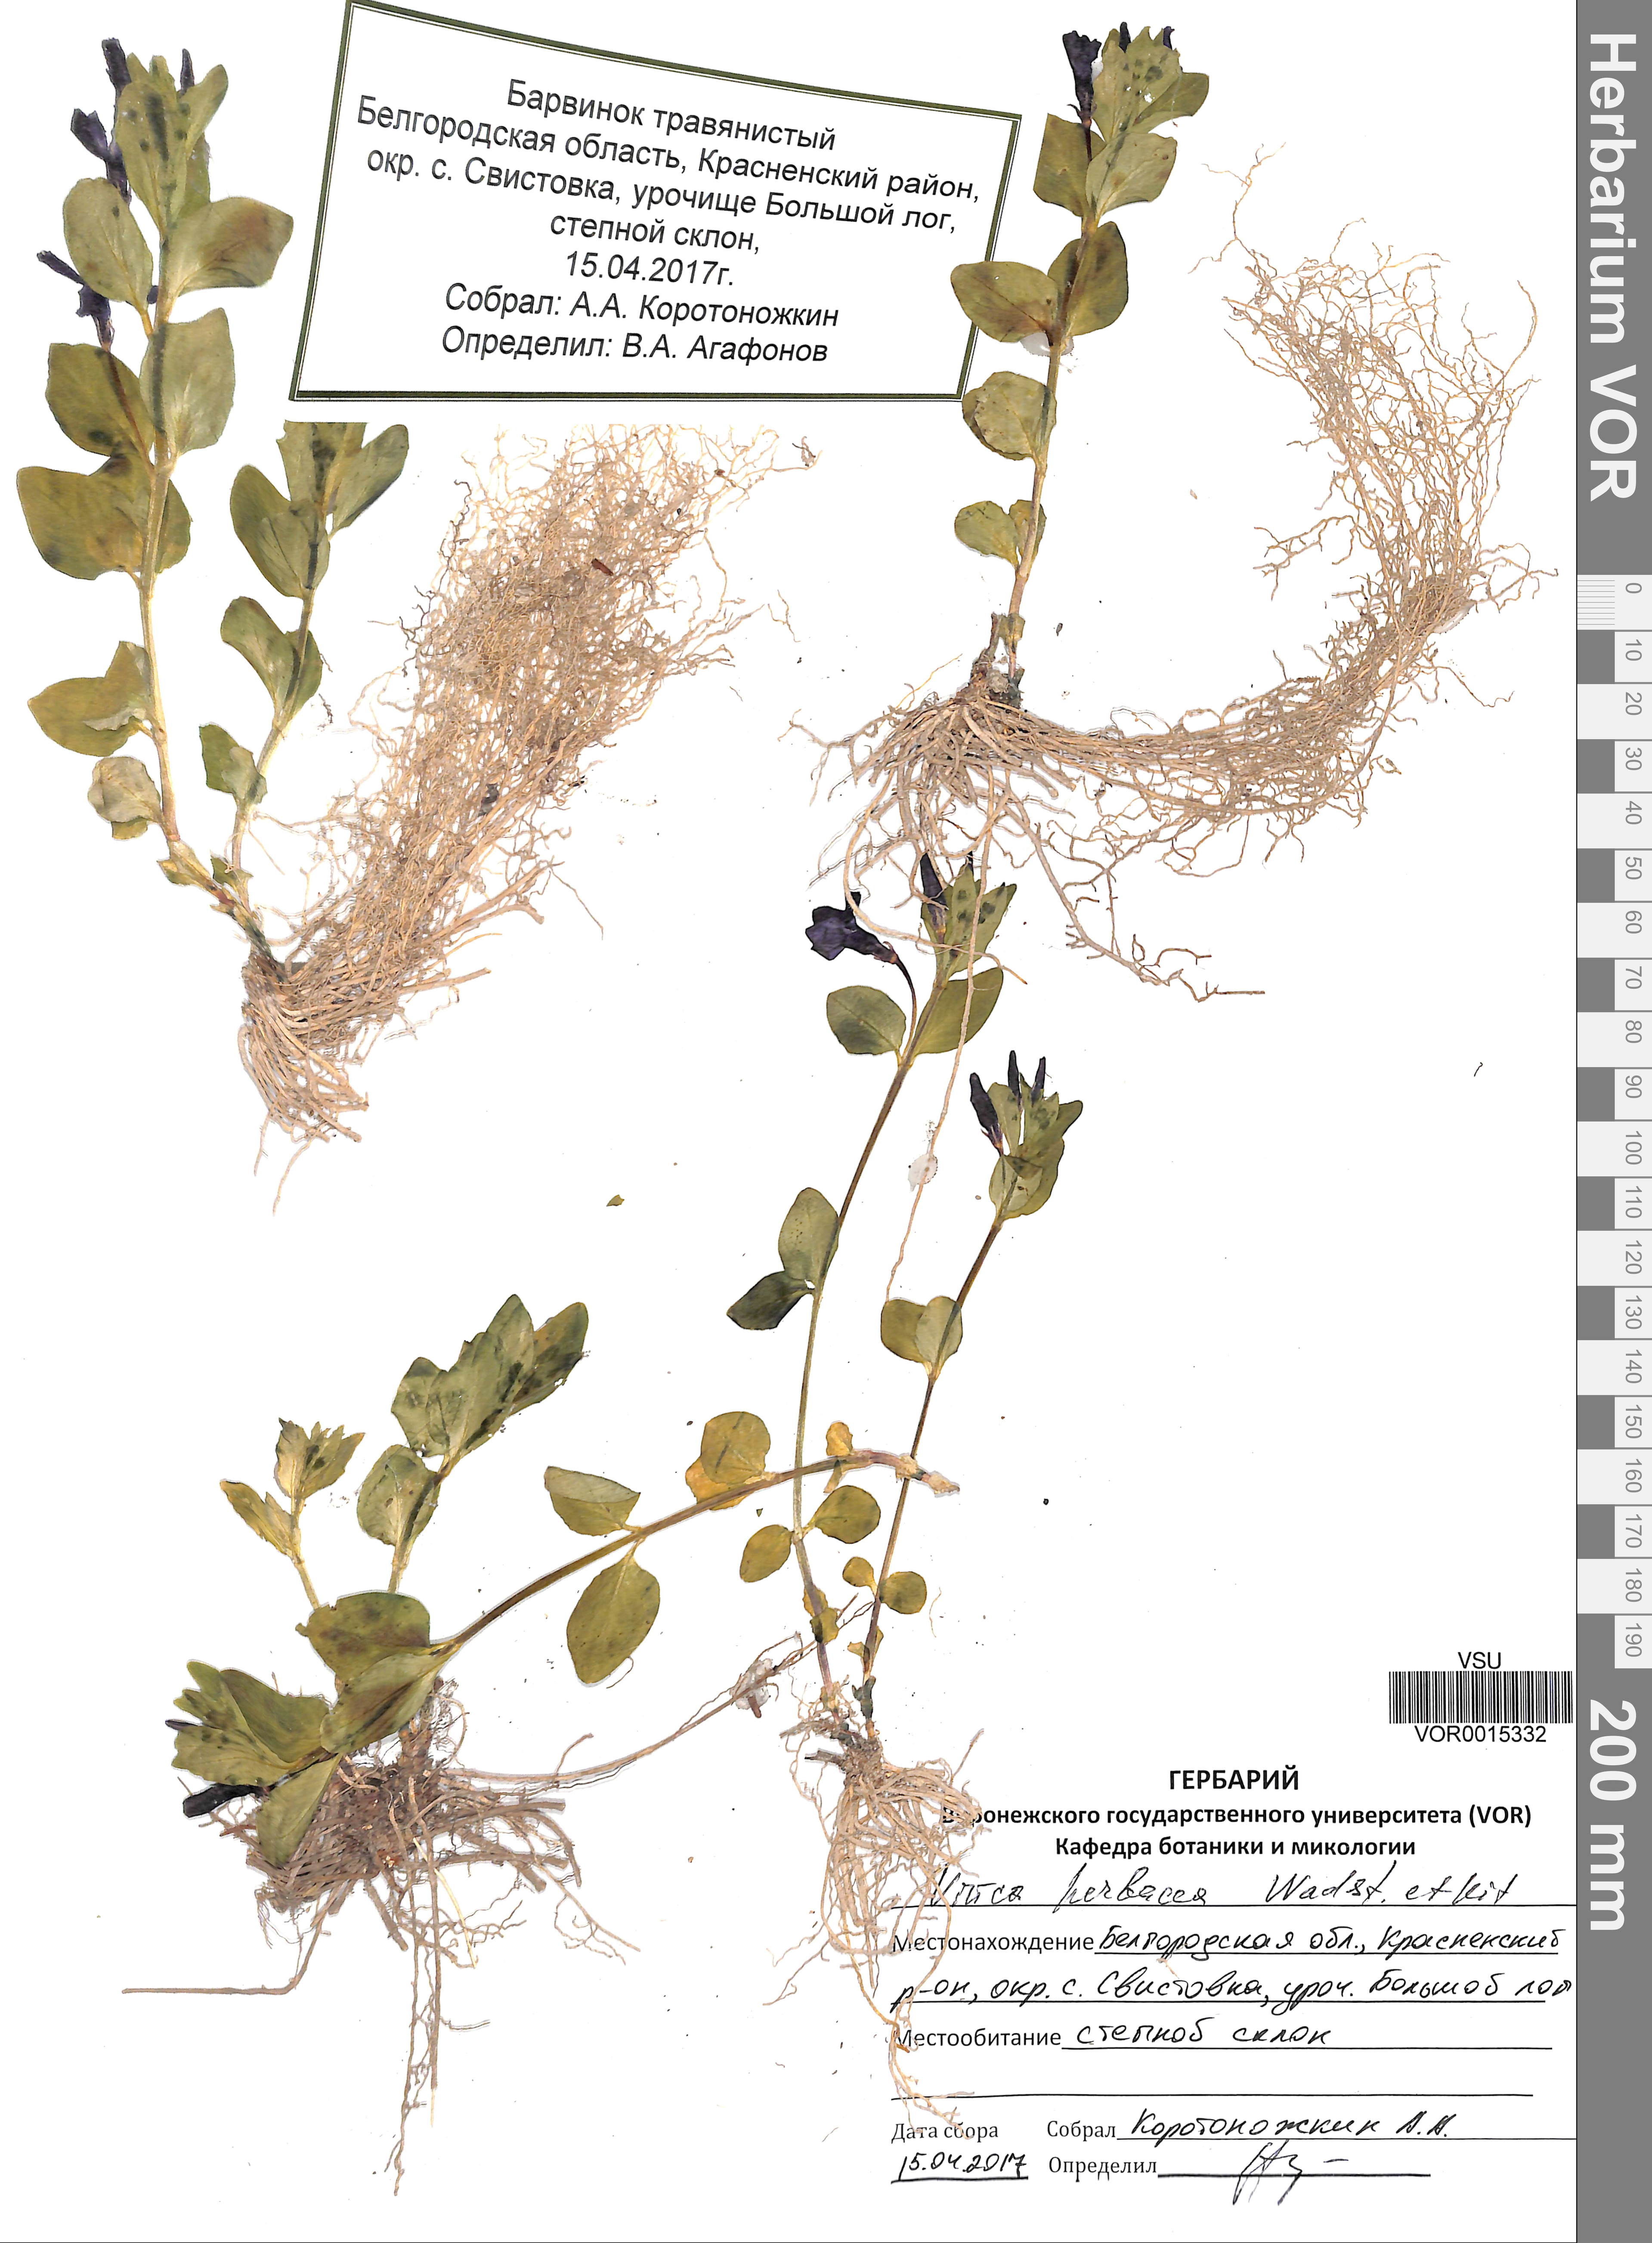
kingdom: Plantae
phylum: Tracheophyta
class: Magnoliopsida
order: Gentianales
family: Apocynaceae
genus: Vinca
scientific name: Vinca herbacea
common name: Herbaceous periwinkle
